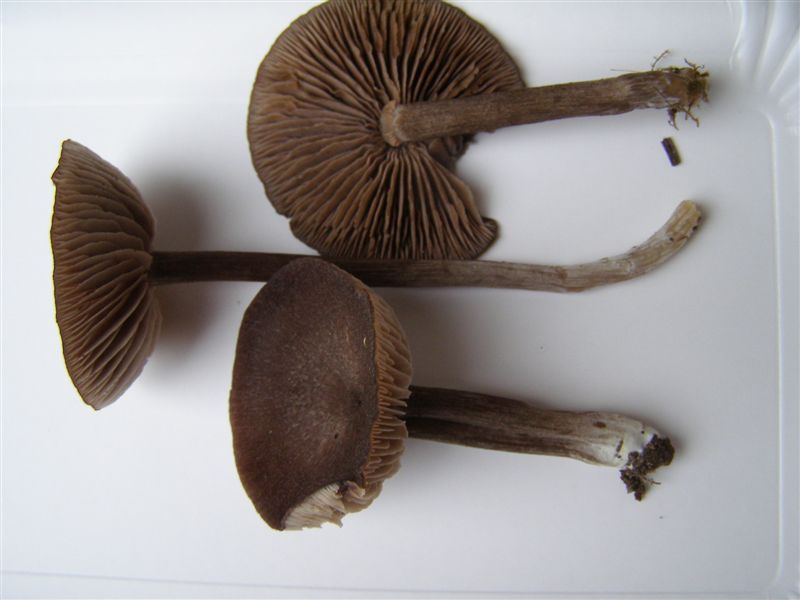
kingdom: Fungi
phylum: Basidiomycota
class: Agaricomycetes
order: Agaricales
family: Entolomataceae
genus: Entoloma
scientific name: Entoloma jubatum
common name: ruskællet rødblad
